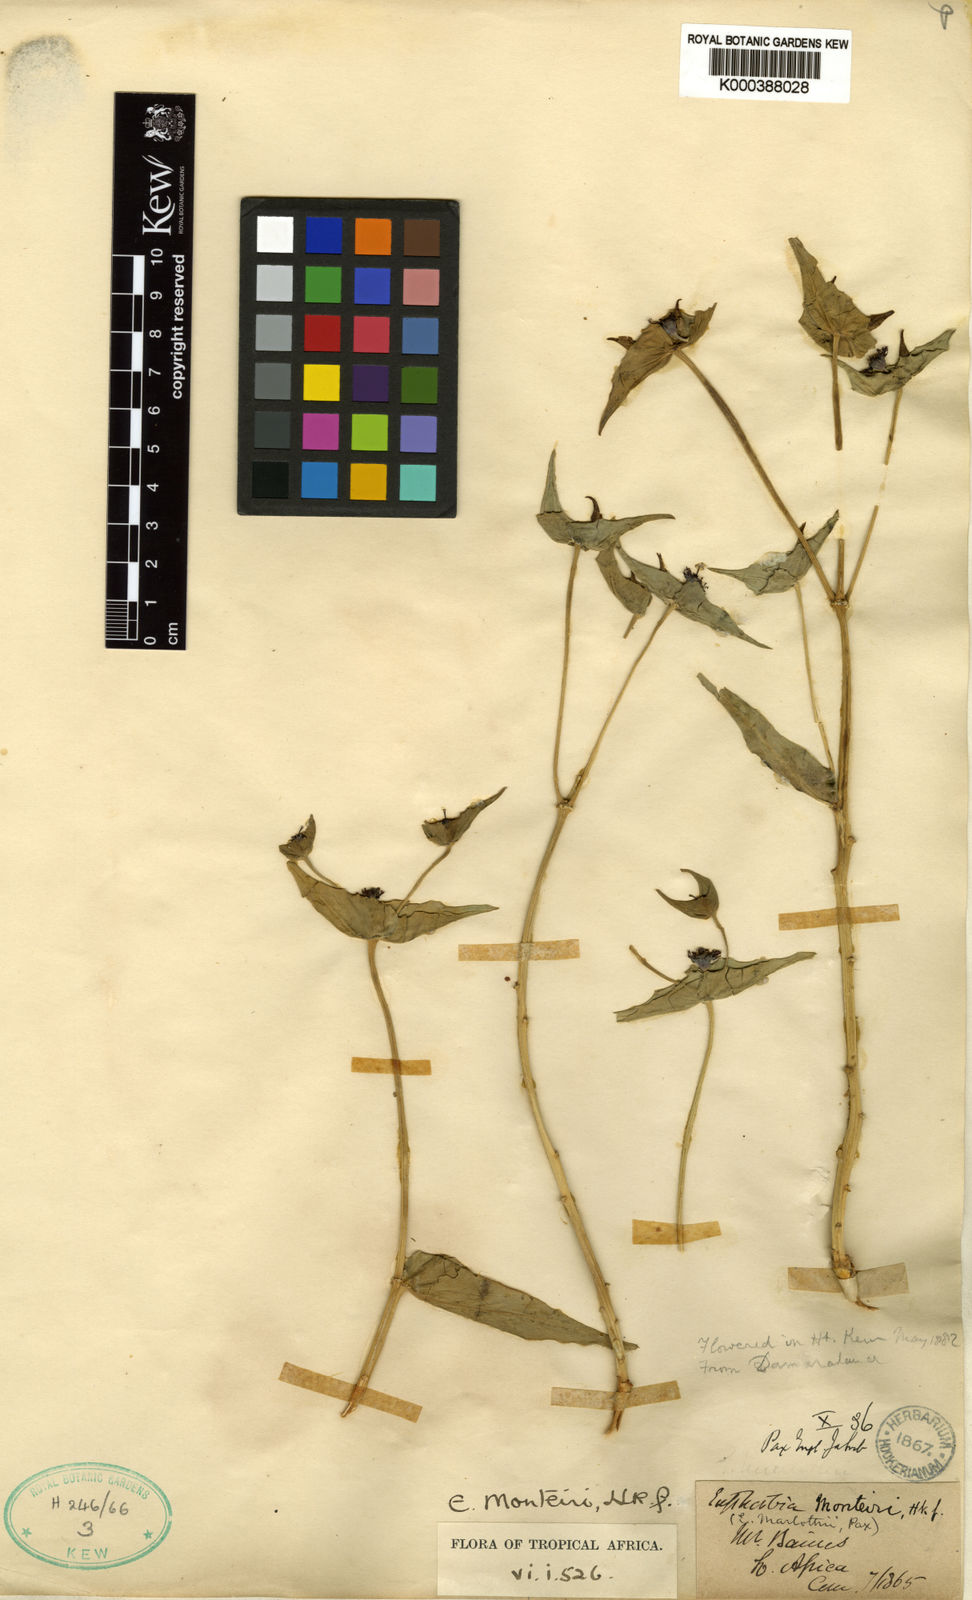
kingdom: Plantae
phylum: Tracheophyta
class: Magnoliopsida
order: Malpighiales
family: Euphorbiaceae
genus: Euphorbia
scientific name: Euphorbia monteiroi
